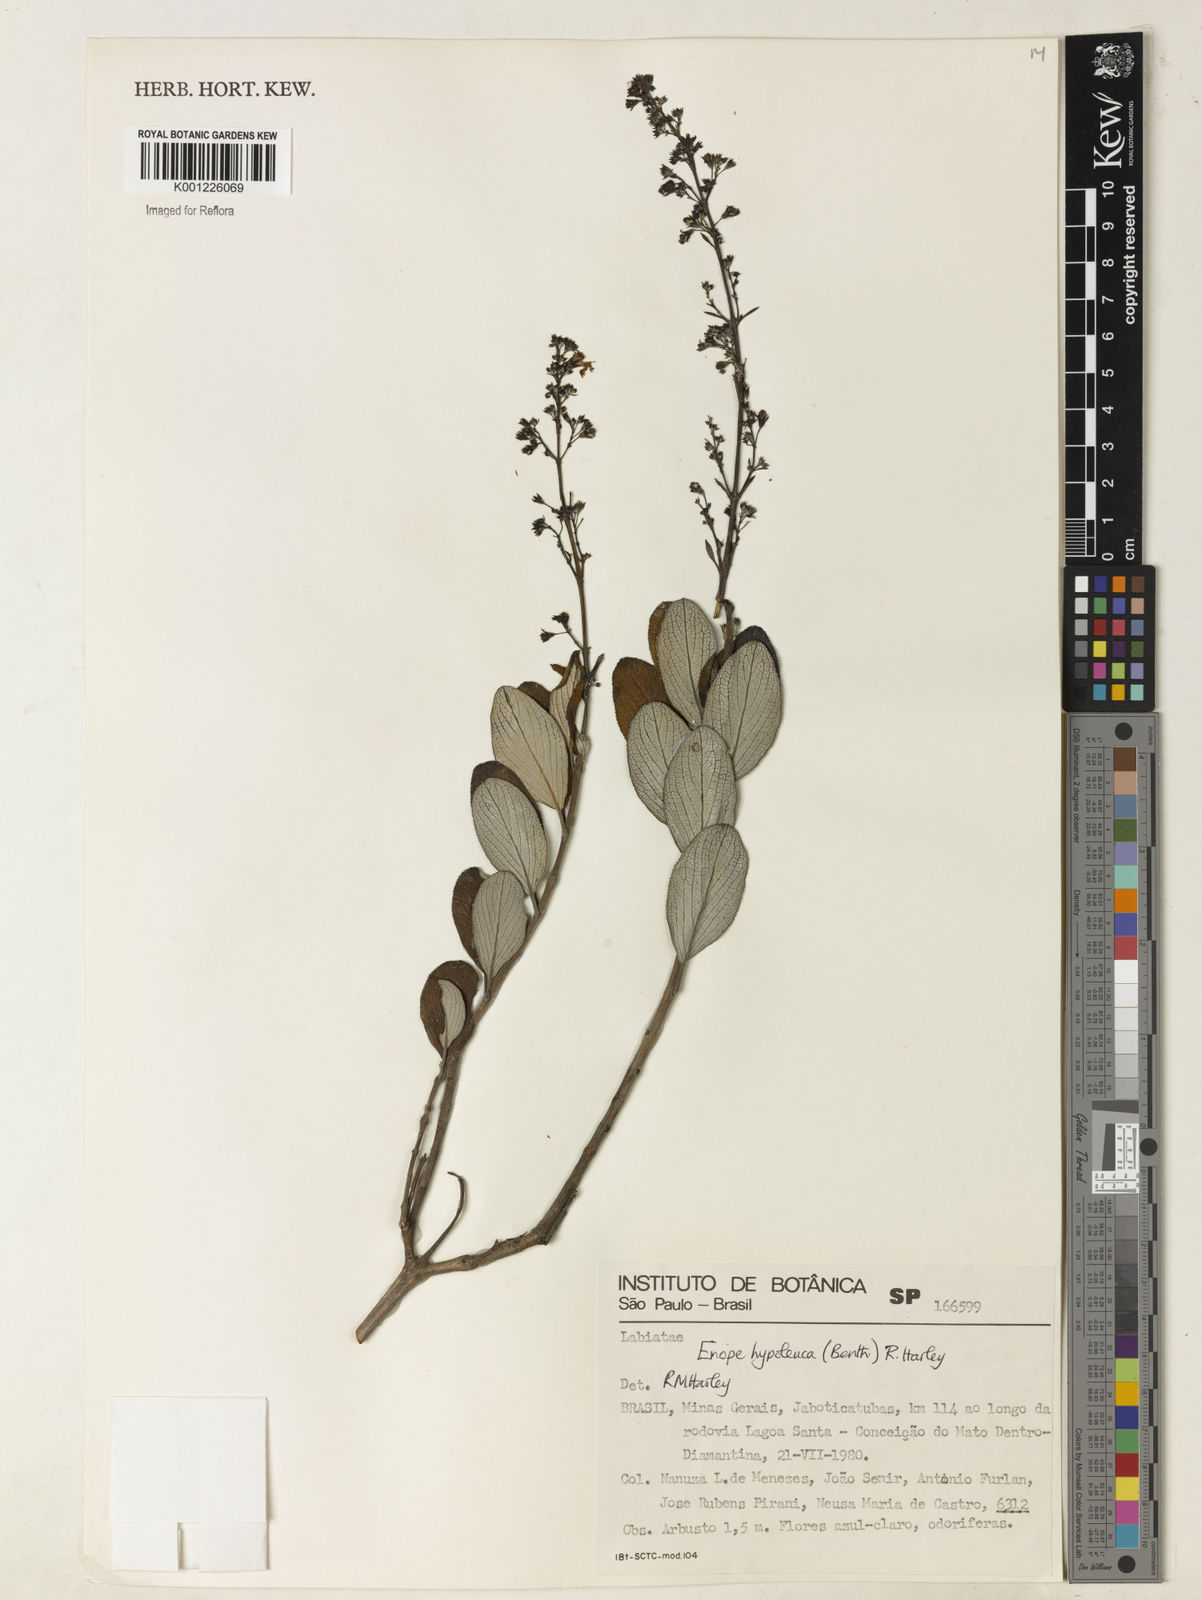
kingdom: Plantae
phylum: Tracheophyta
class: Magnoliopsida
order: Lamiales
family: Lamiaceae
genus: Eriope
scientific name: Eriope hypoleuca
